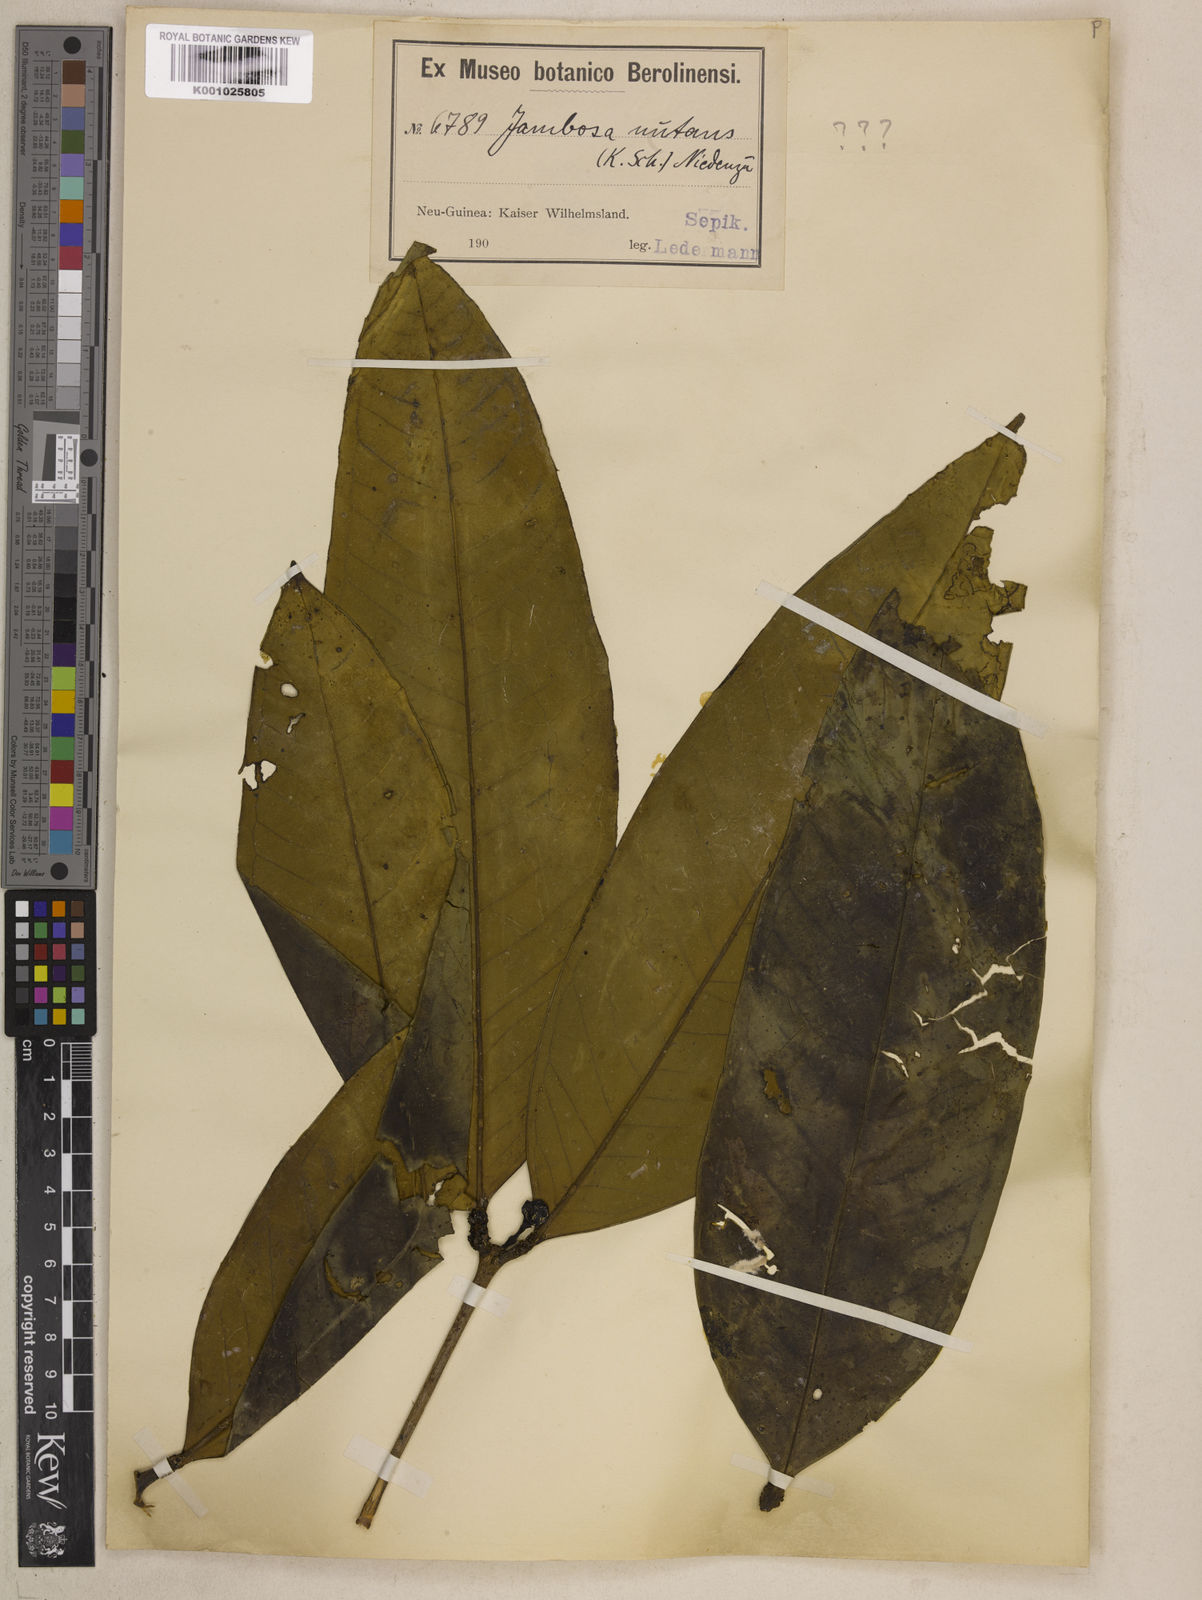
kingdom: Plantae
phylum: Tracheophyta
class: Magnoliopsida
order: Myrtales
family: Myrtaceae
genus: Syzygium
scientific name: Syzygium nutans
